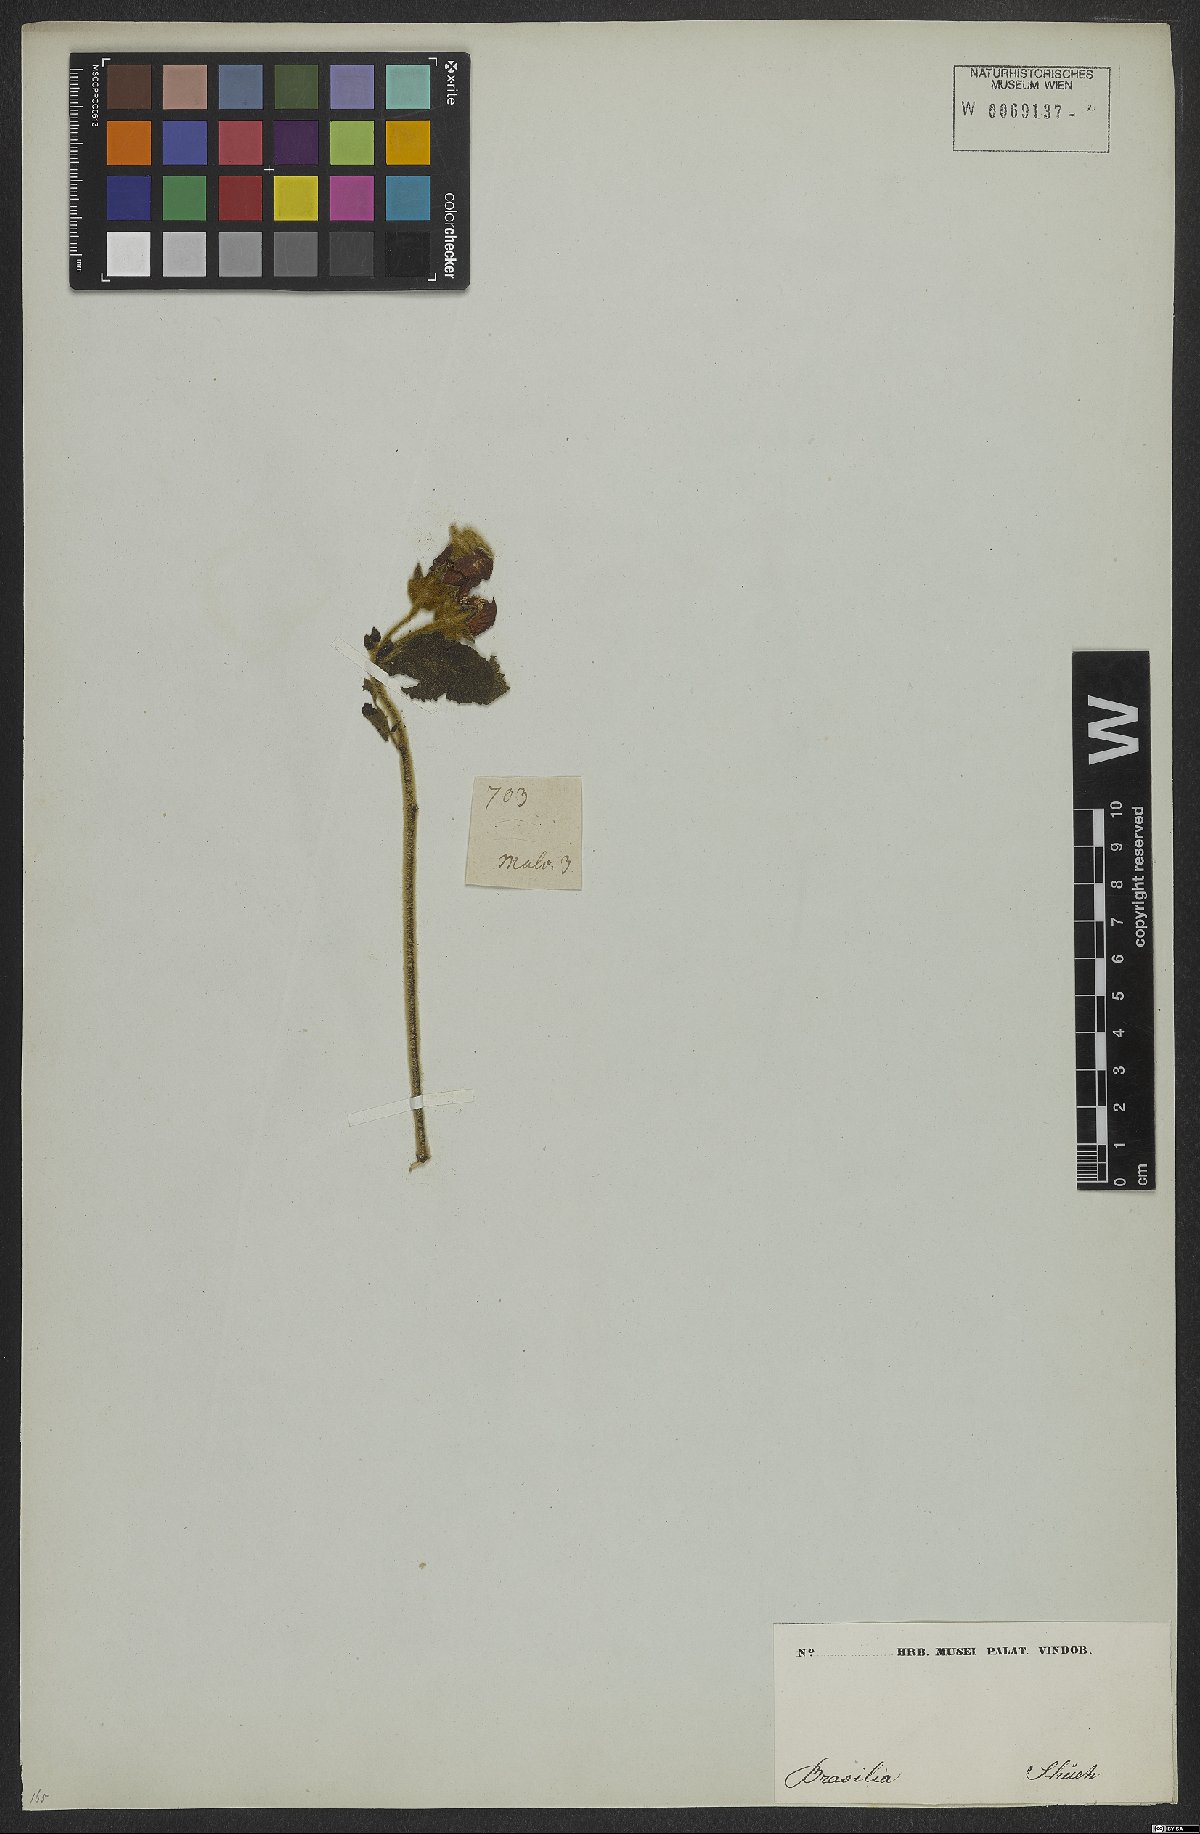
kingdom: Plantae
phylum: Tracheophyta
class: Magnoliopsida
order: Malvales
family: Malvaceae
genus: Callianthe
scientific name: Callianthe scabrida
